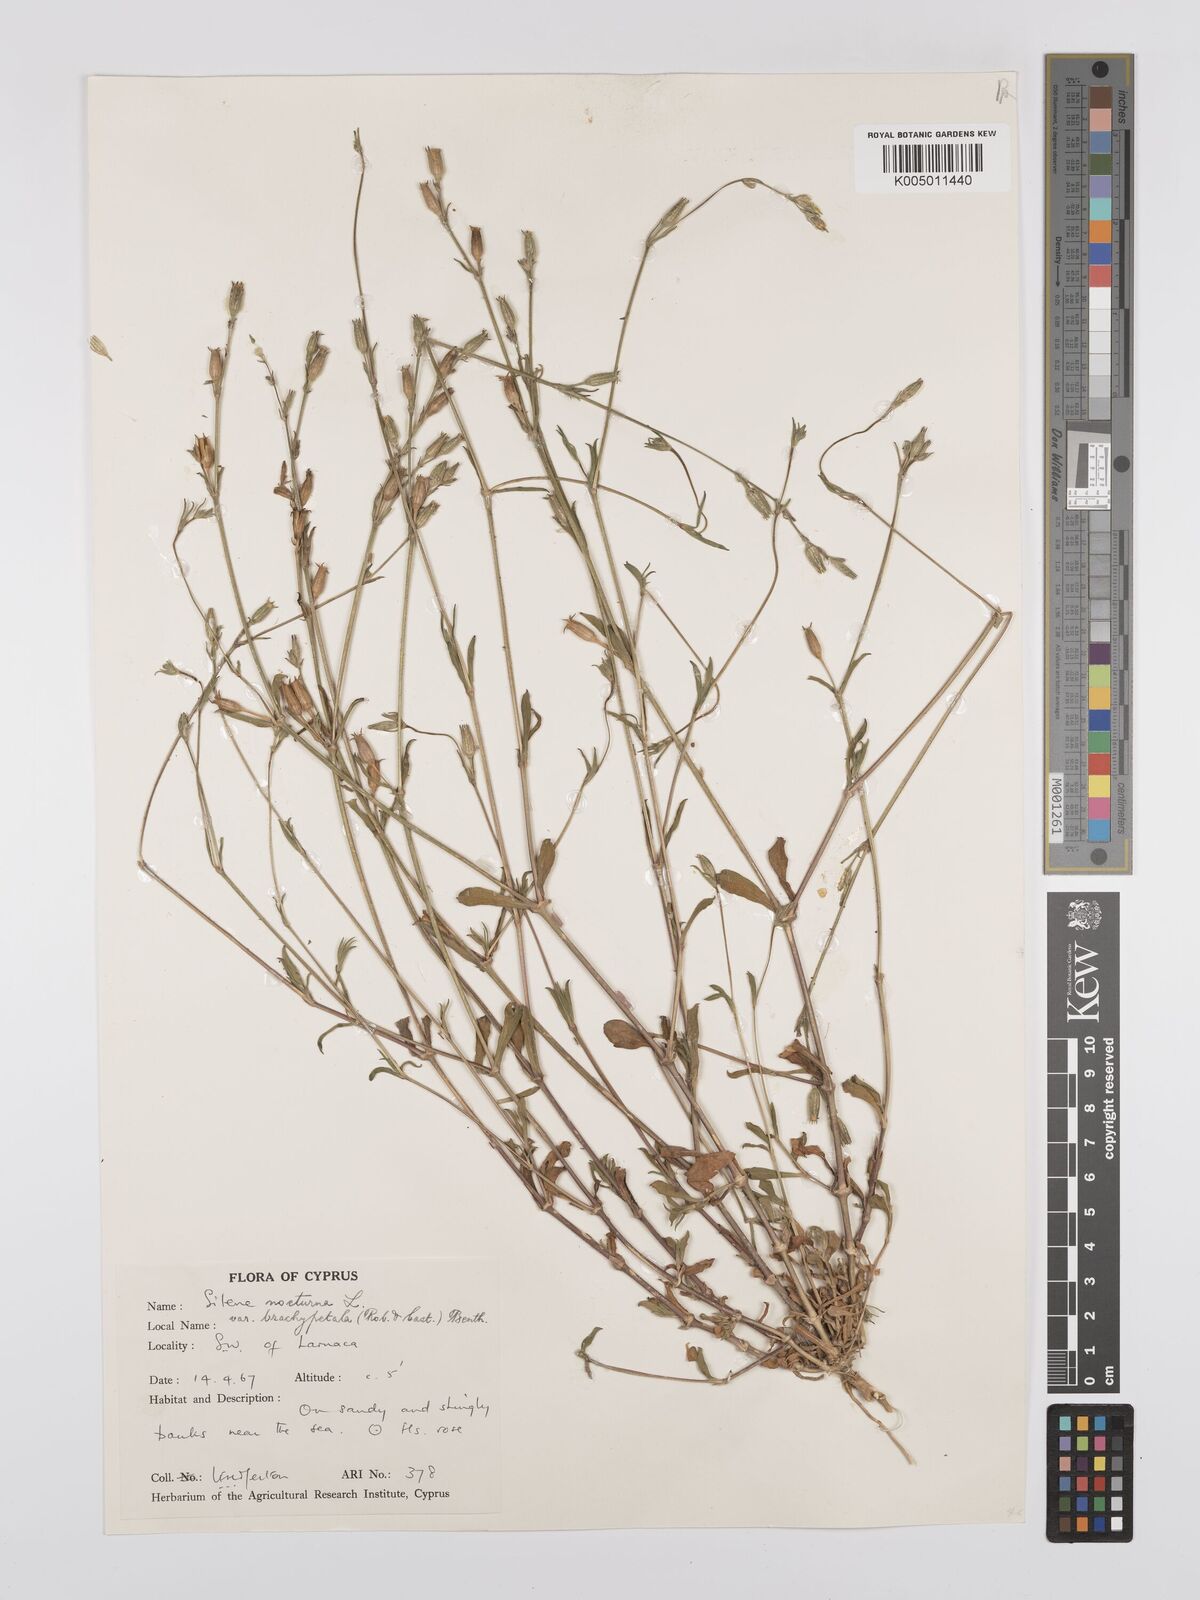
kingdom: Plantae
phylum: Tracheophyta
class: Magnoliopsida
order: Caryophyllales
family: Caryophyllaceae
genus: Silene
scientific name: Silene nocturna
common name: Mediterranean catchfly
